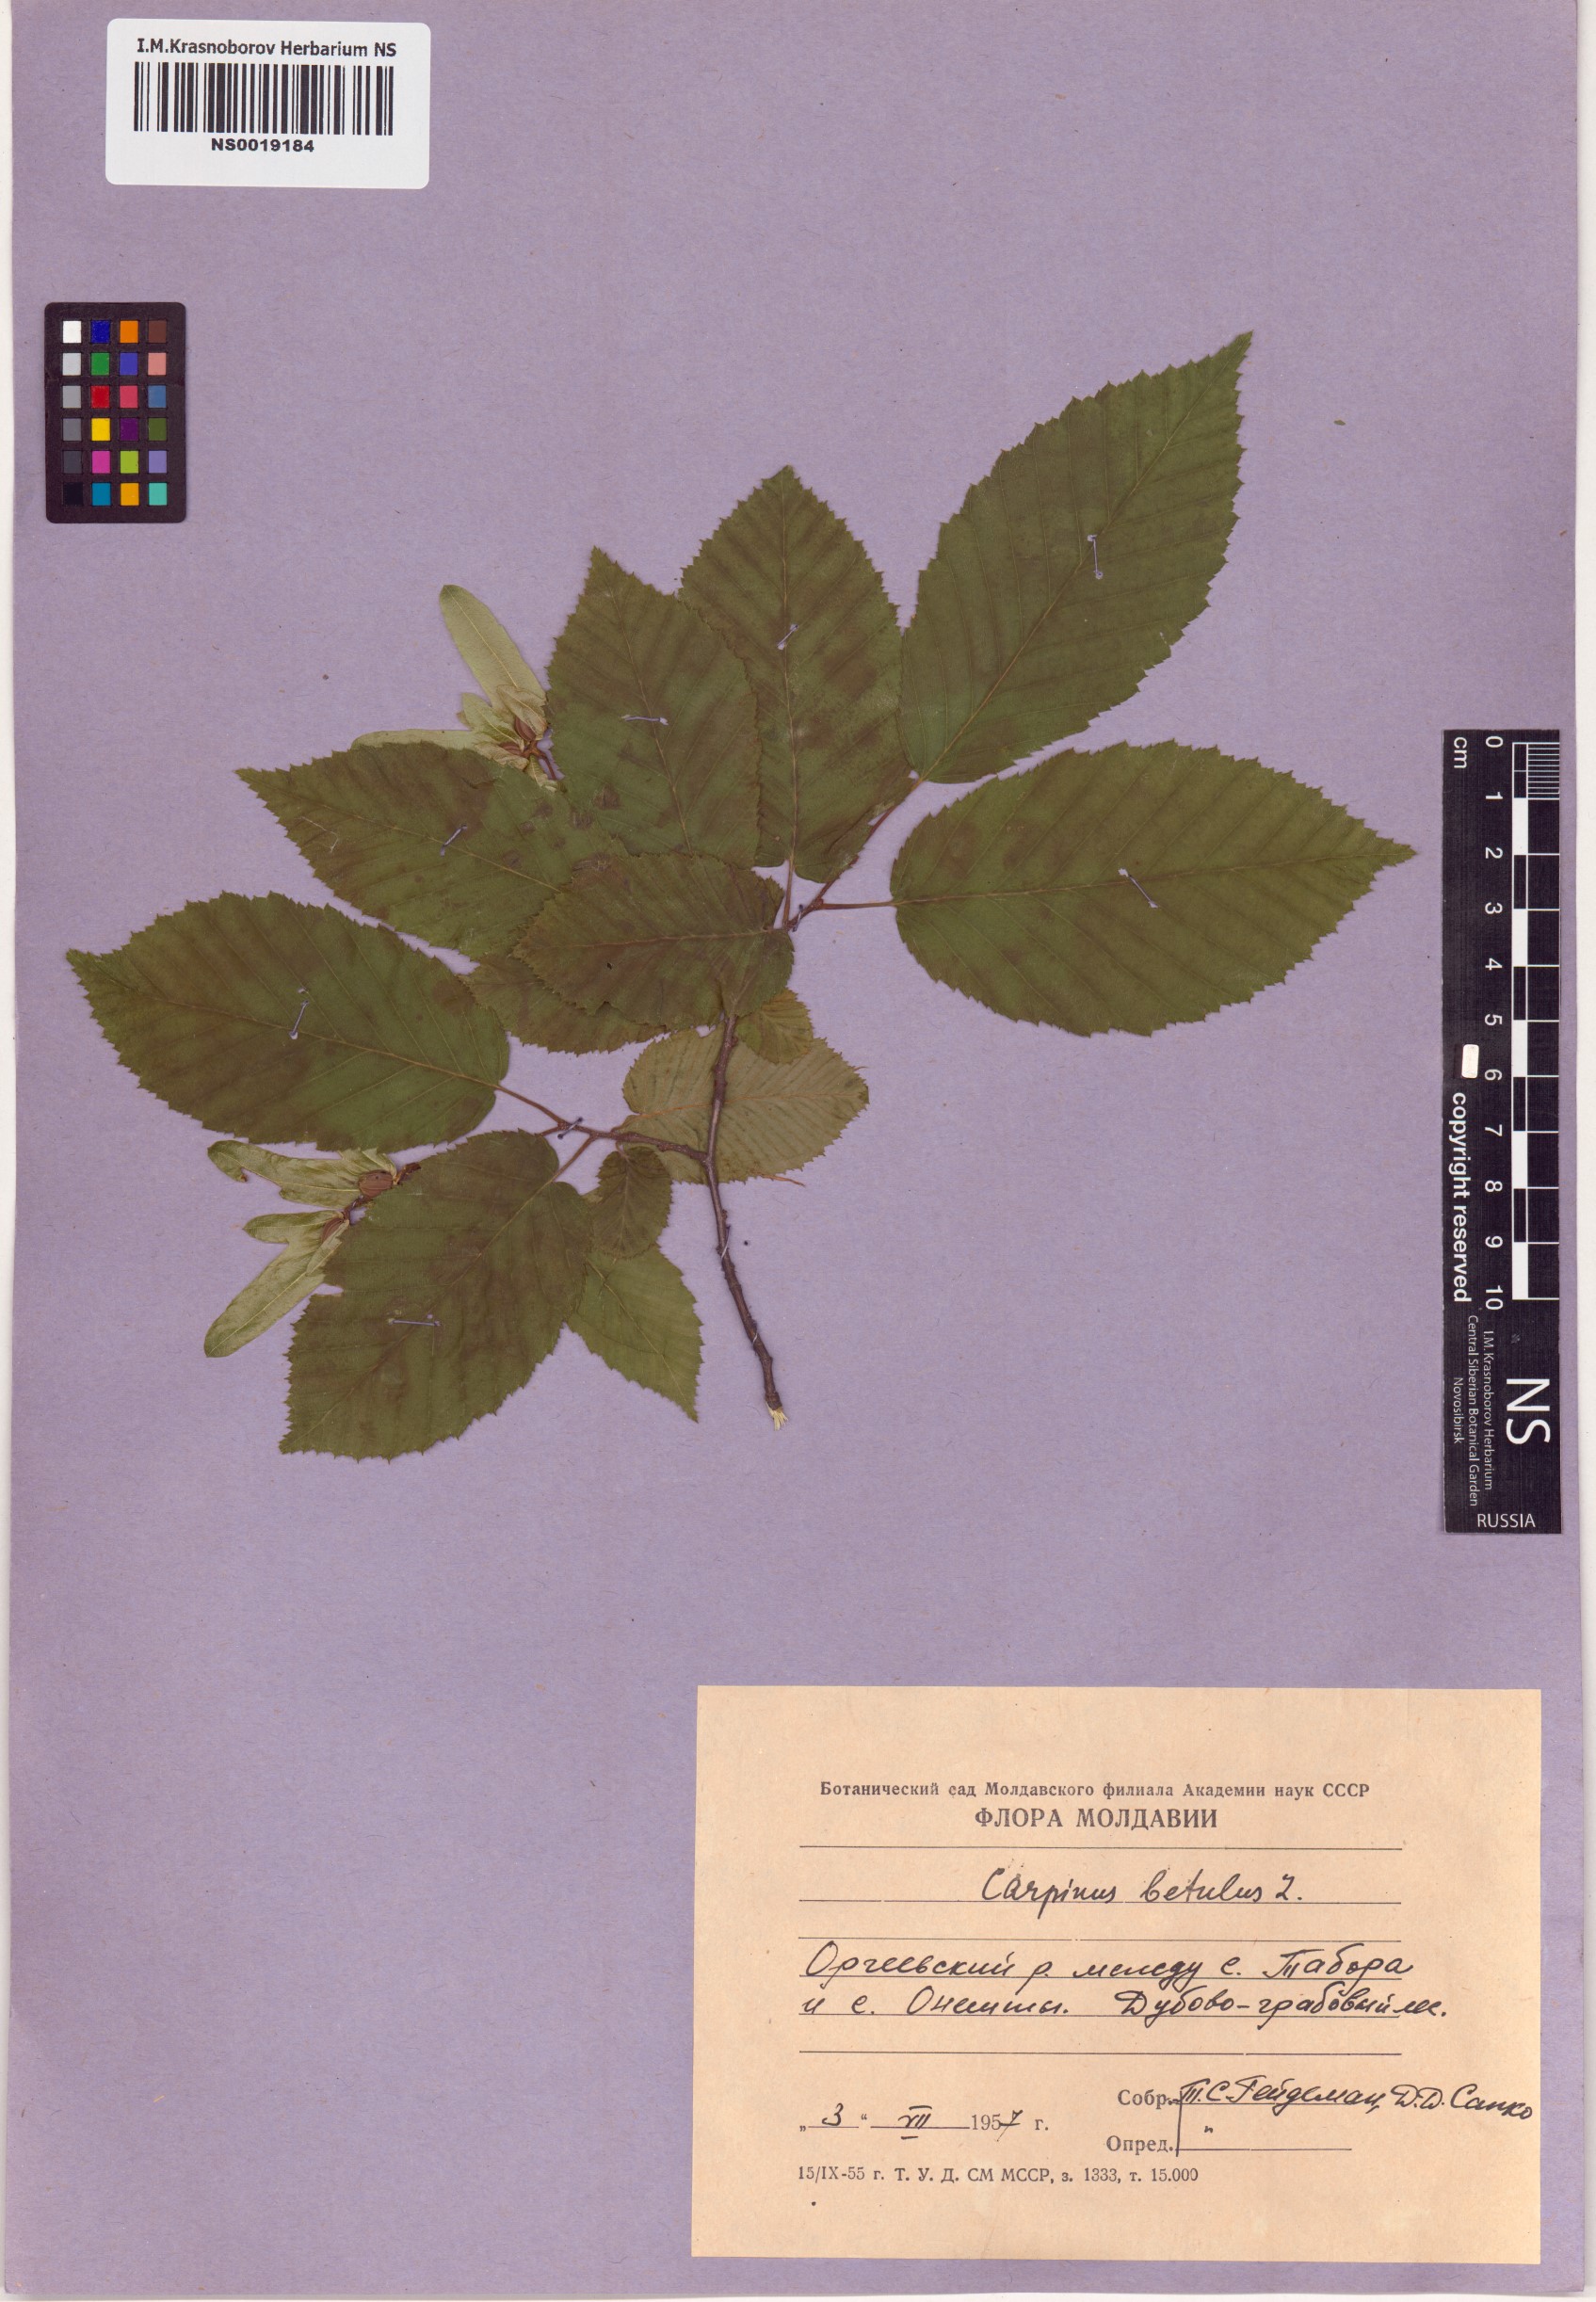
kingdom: Plantae
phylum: Tracheophyta
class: Magnoliopsida
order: Fagales
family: Betulaceae
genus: Carpinus
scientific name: Carpinus betulus
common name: Hornbeam
